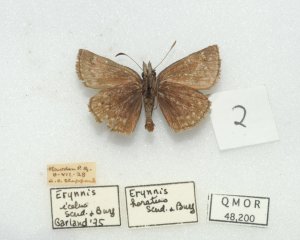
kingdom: Animalia
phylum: Arthropoda
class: Insecta
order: Lepidoptera
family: Hesperiidae
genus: Erynnis
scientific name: Erynnis icelus
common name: Dreamy Duskywing
